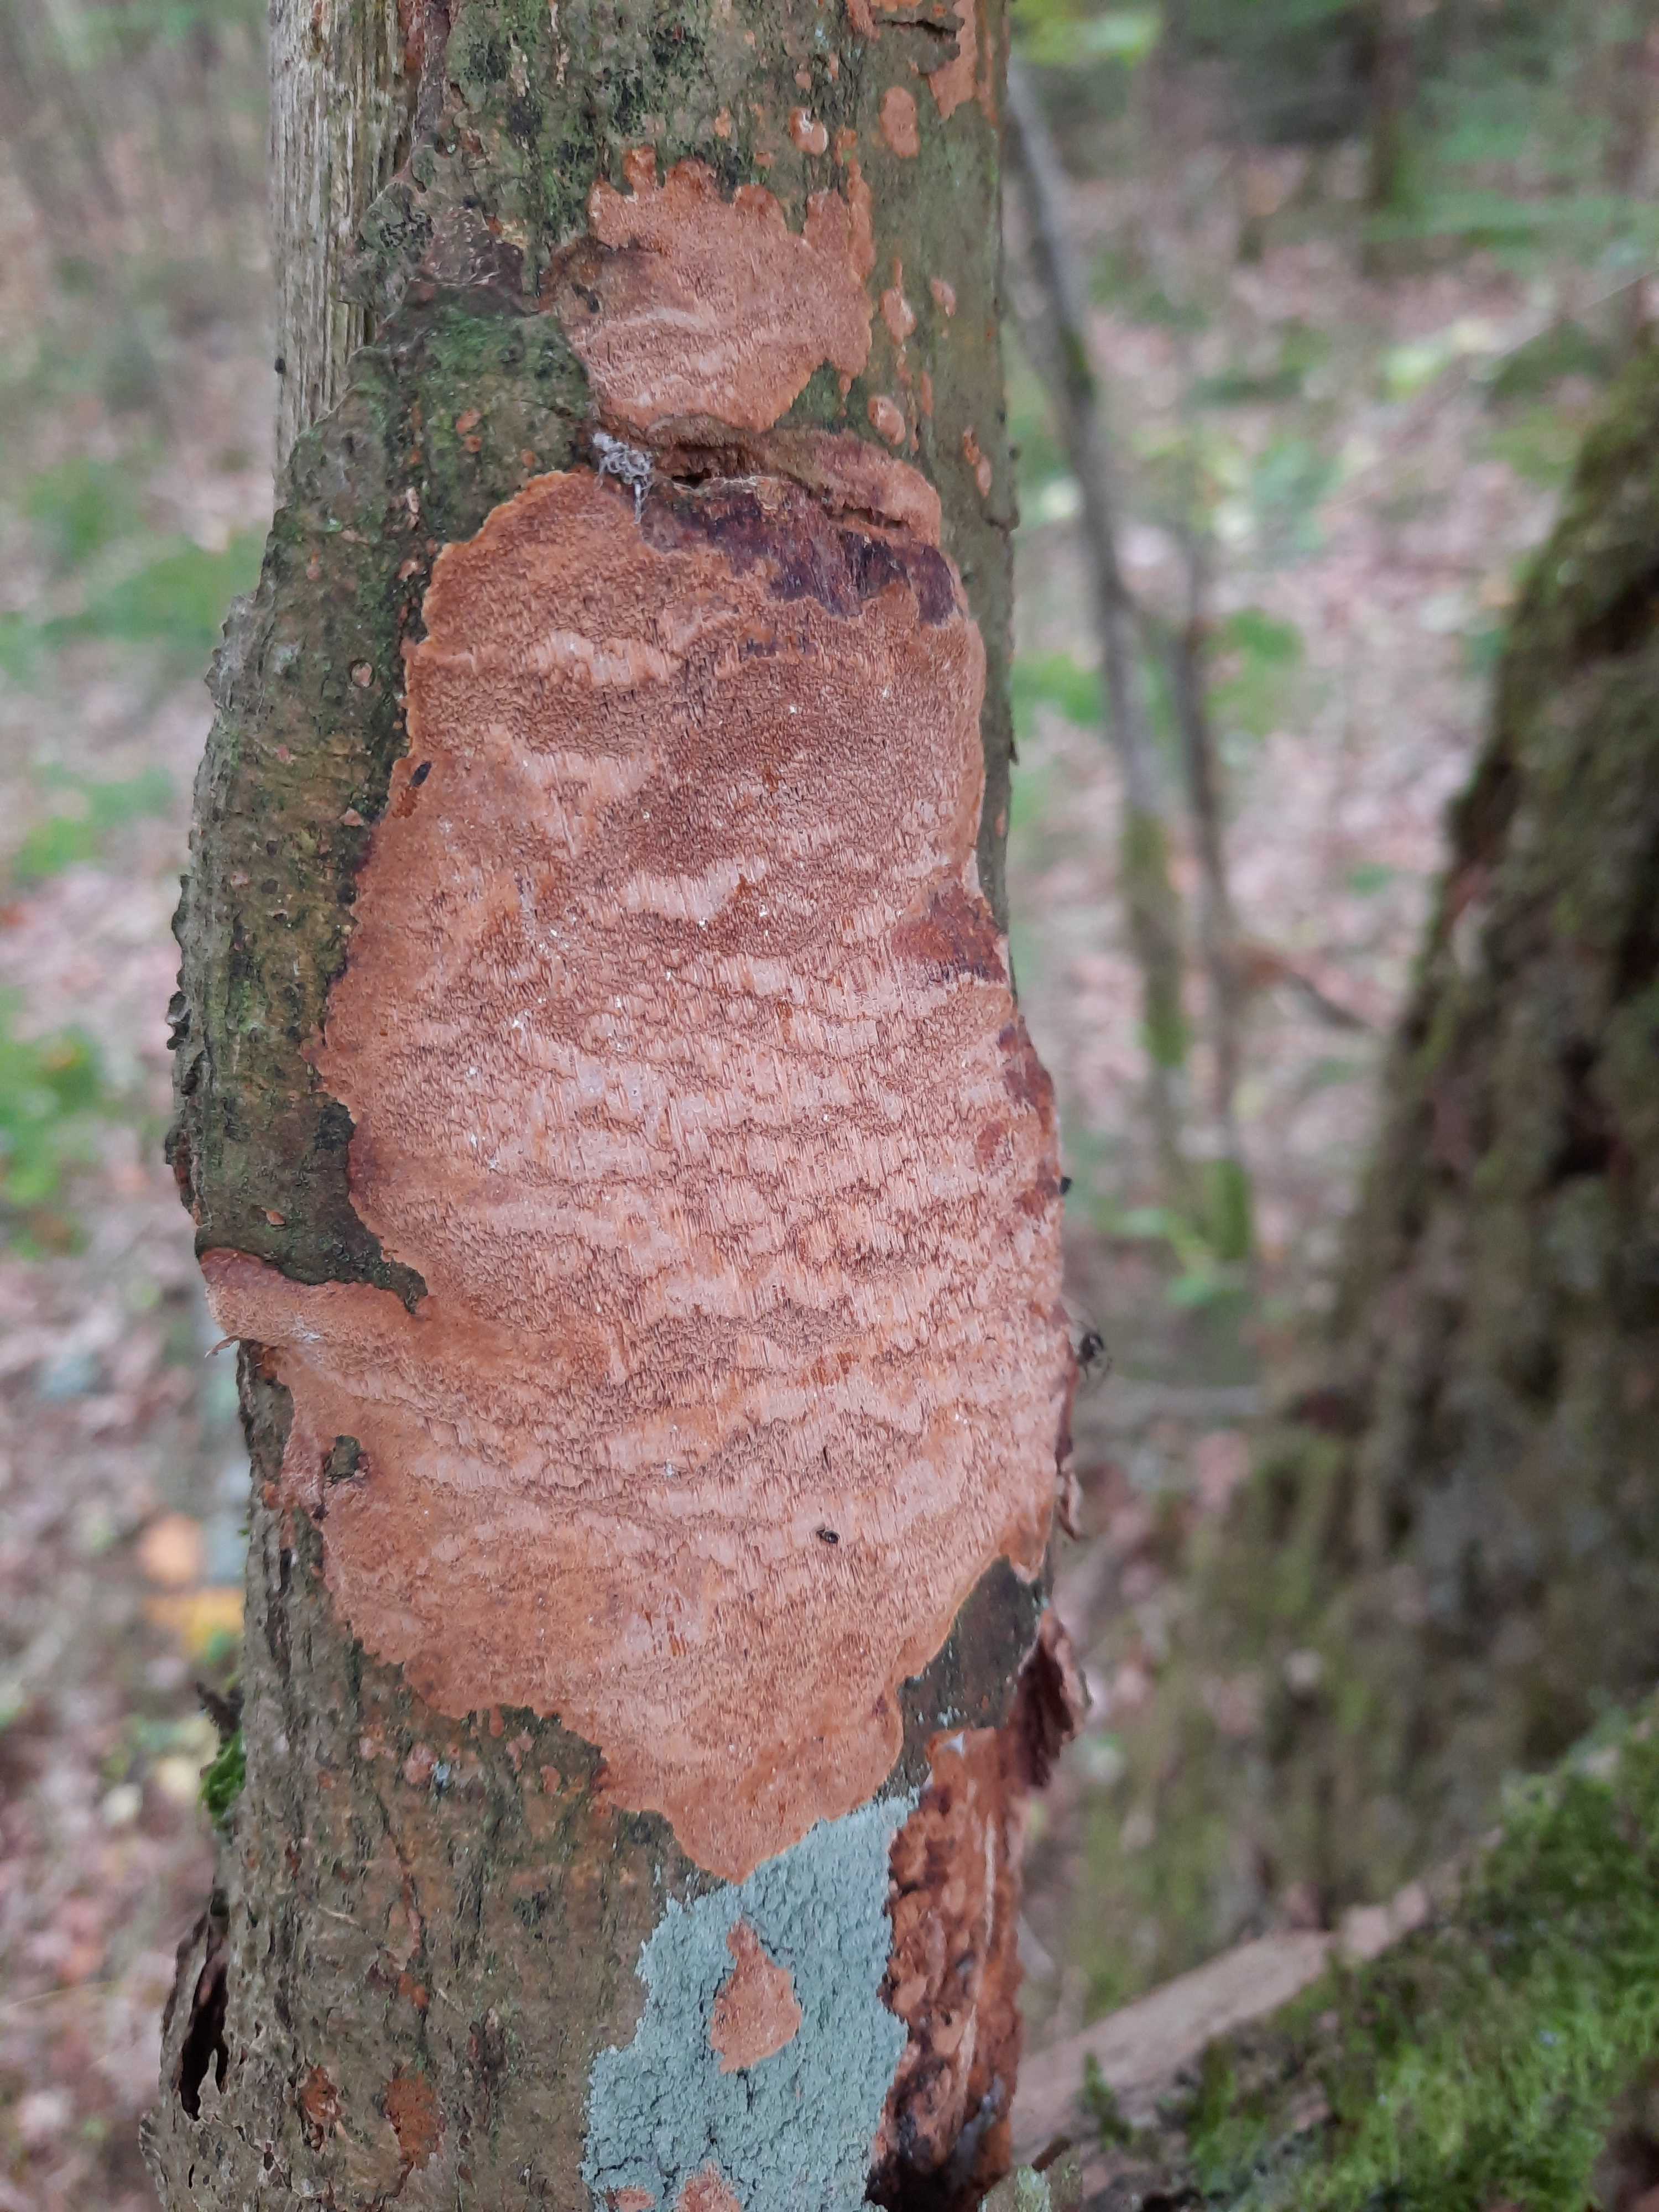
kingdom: Fungi
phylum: Basidiomycota
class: Agaricomycetes
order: Hymenochaetales
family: Hymenochaetaceae
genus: Fuscoporia
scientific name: Fuscoporia ferrea
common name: skorpe-ildporesvamp
